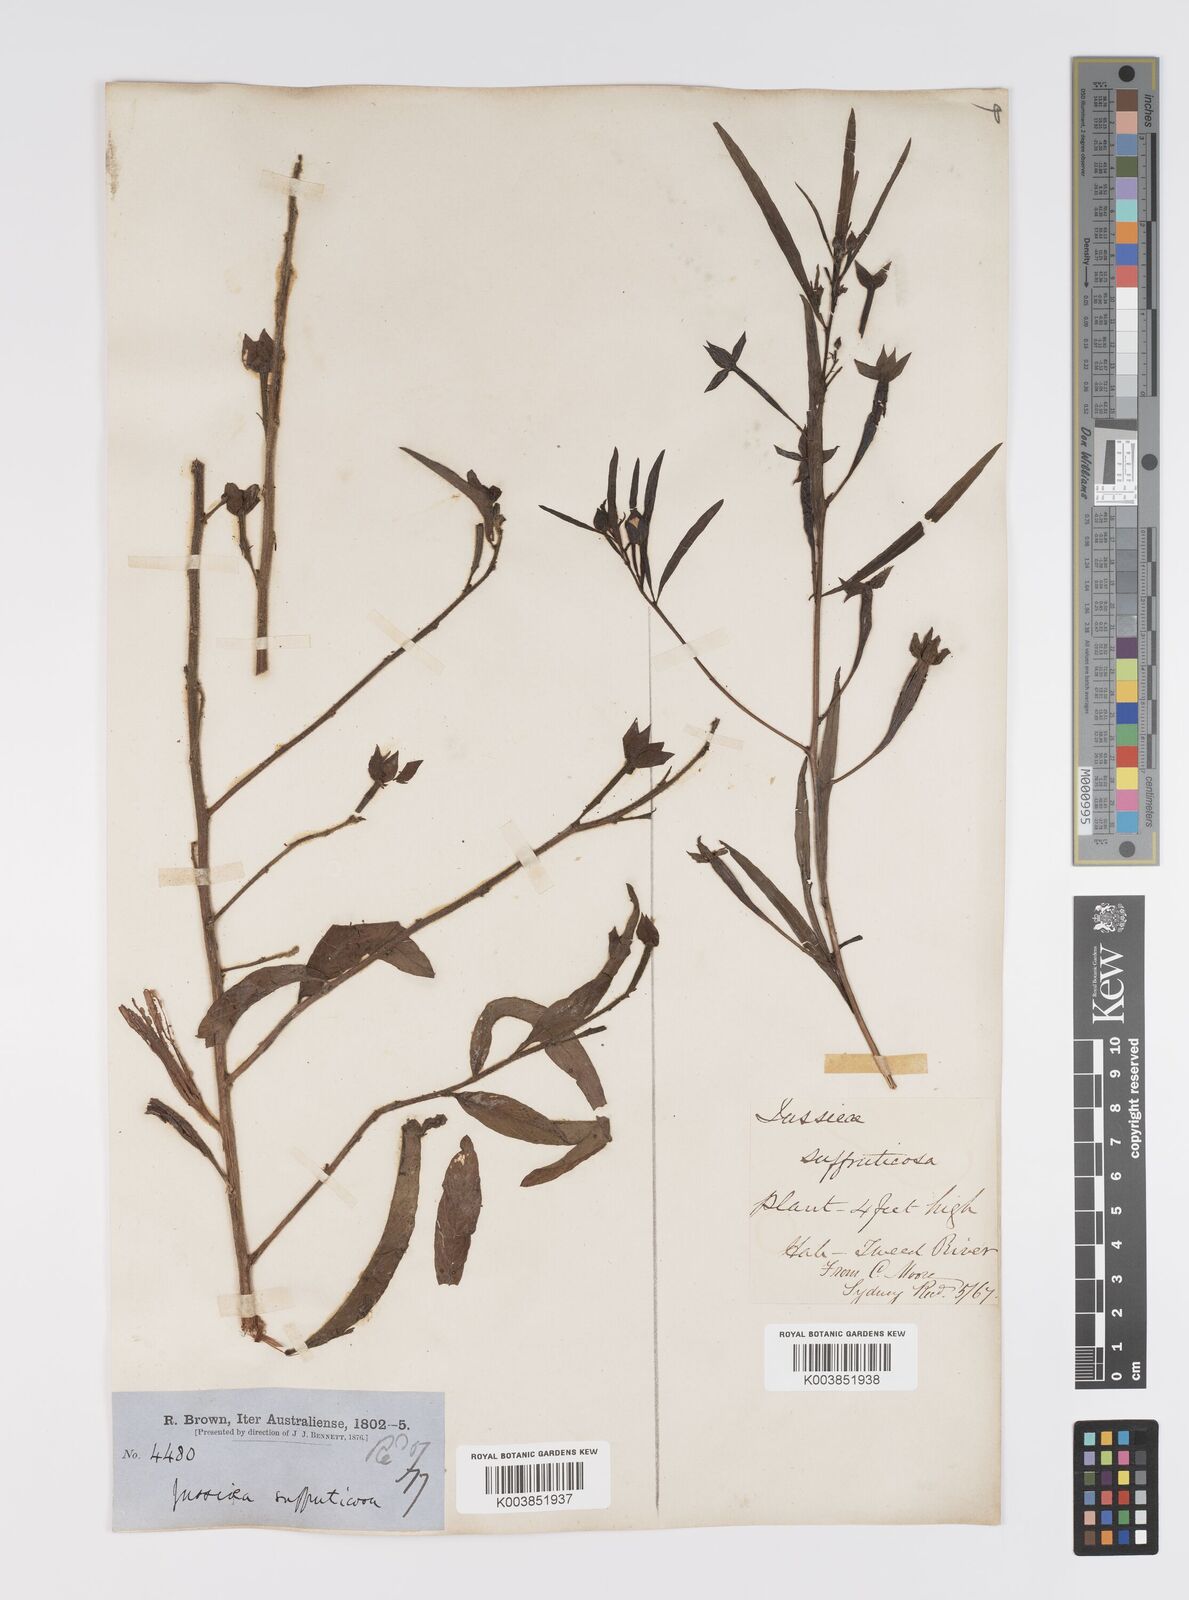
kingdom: Plantae
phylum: Tracheophyta
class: Magnoliopsida
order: Myrtales
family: Onagraceae
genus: Ludwigia
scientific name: Ludwigia octovalvis
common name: Water-primrose
